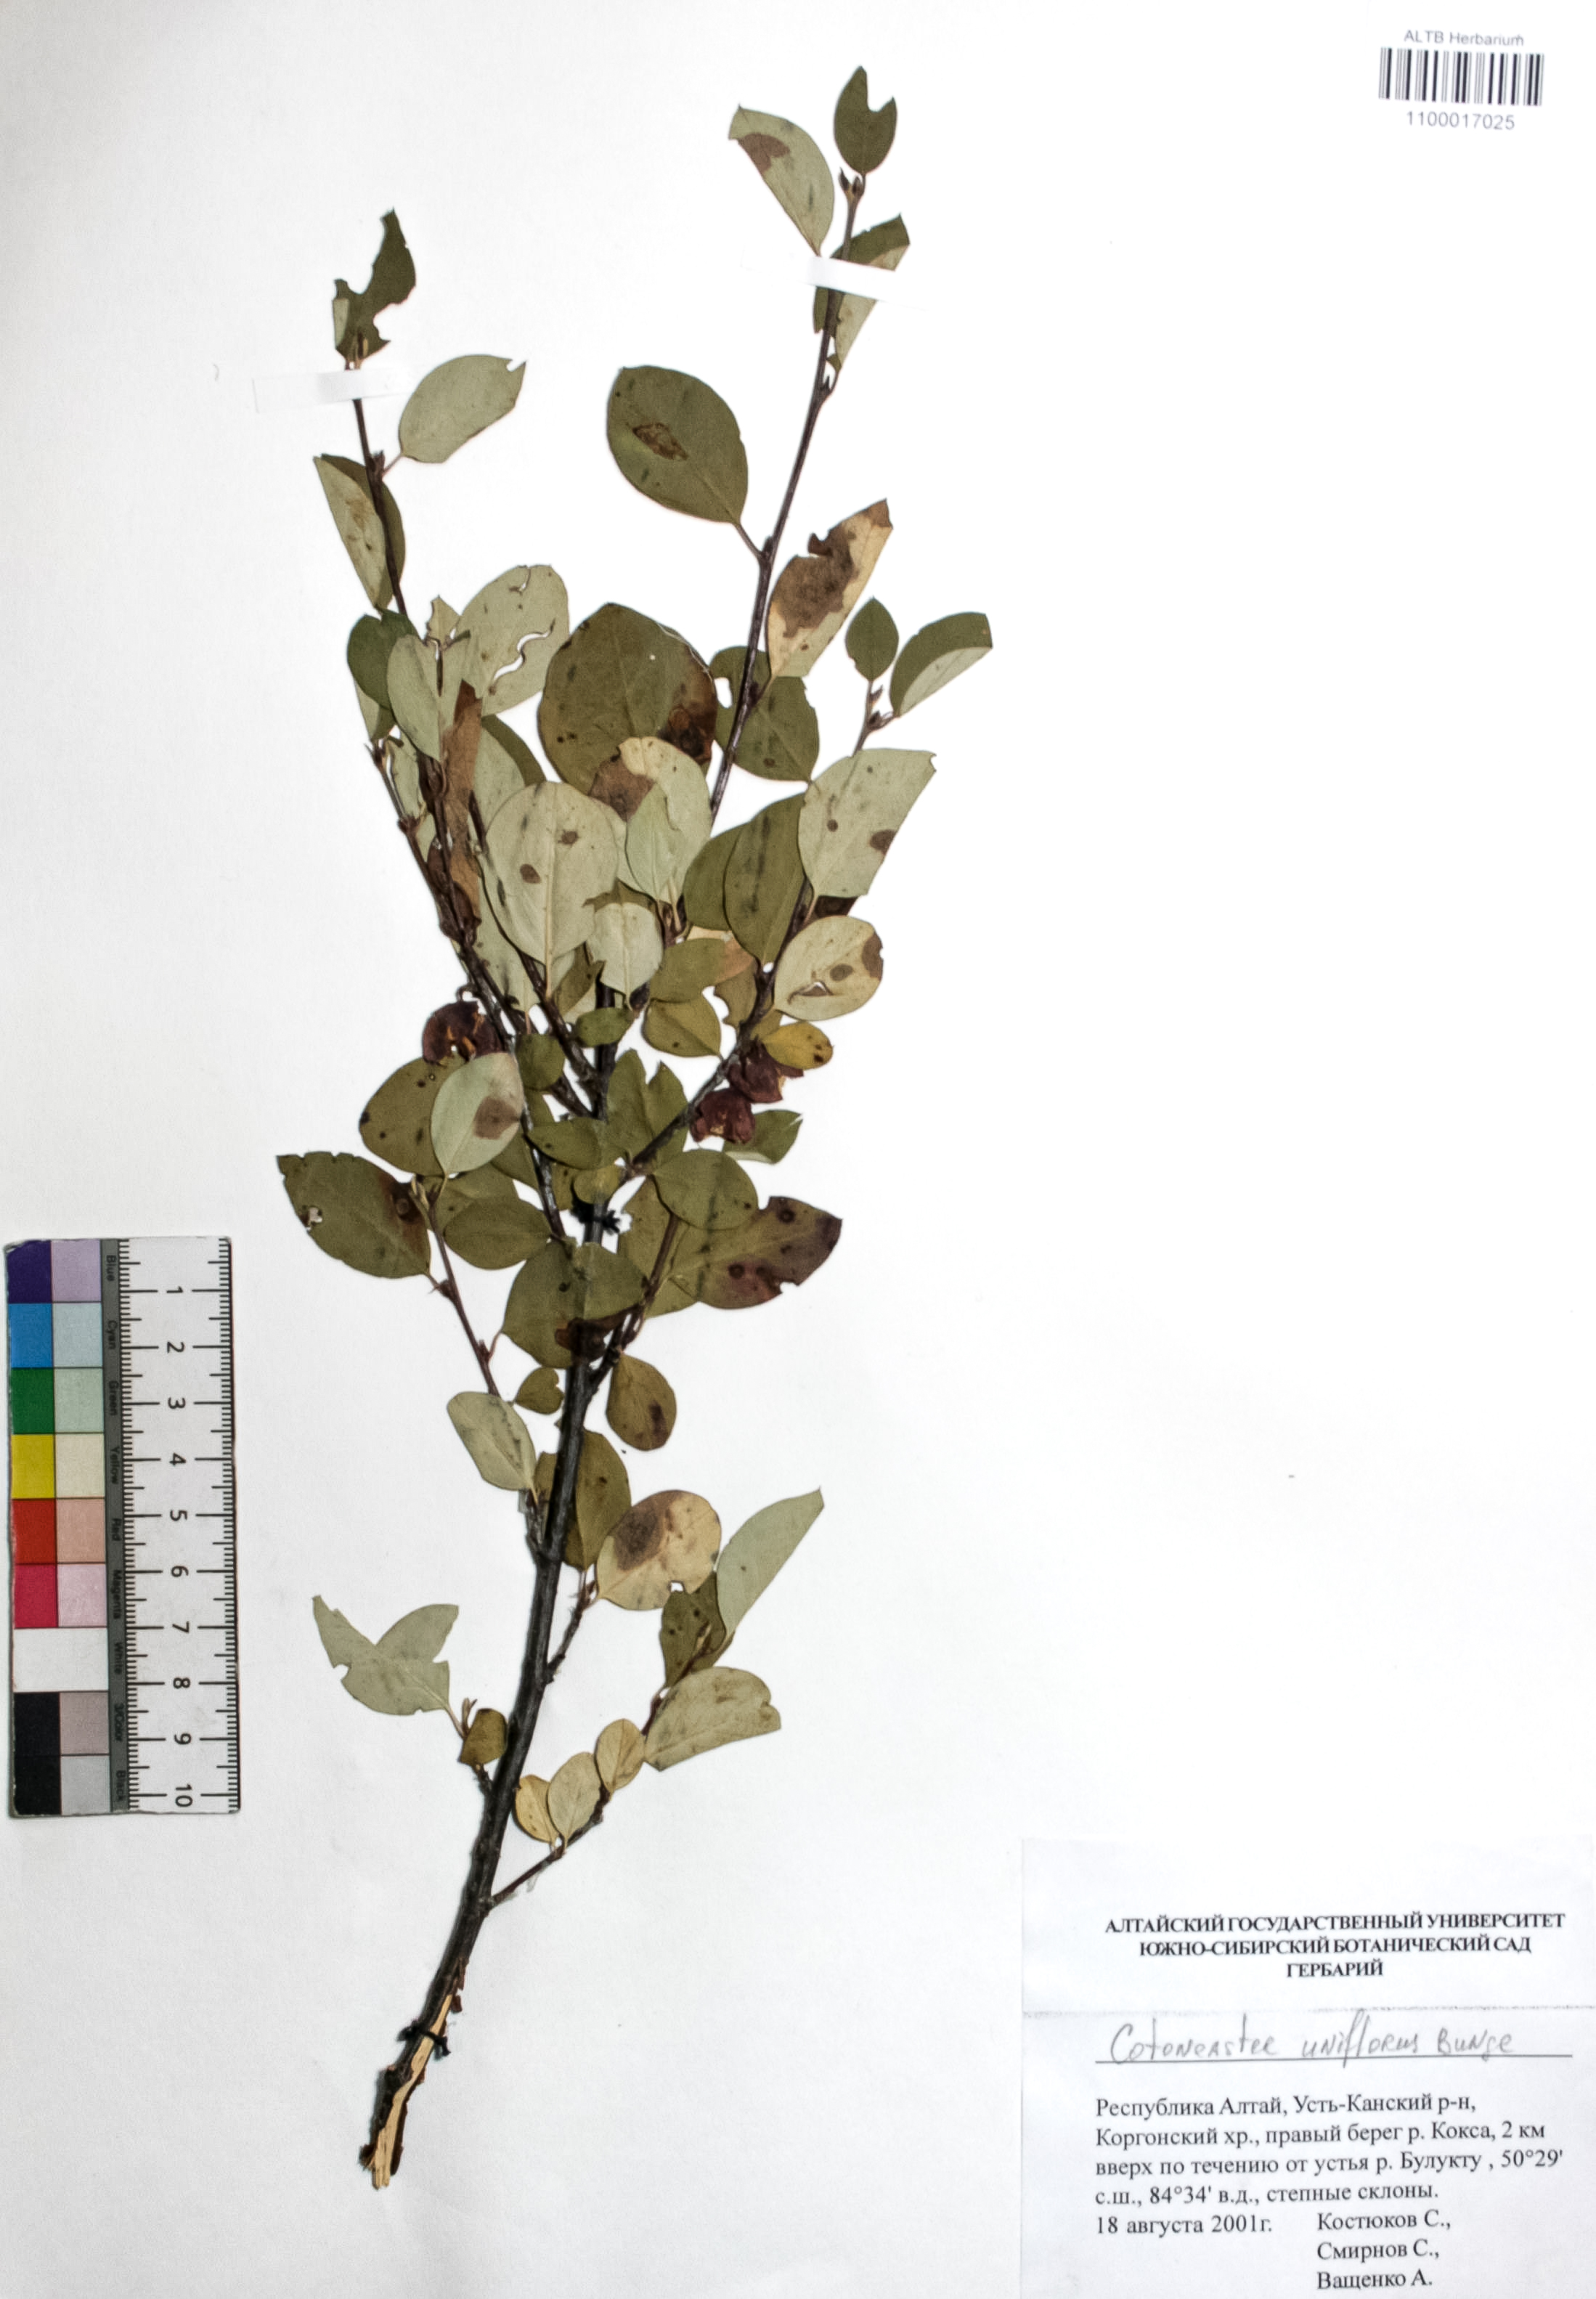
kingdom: Plantae
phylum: Tracheophyta
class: Magnoliopsida
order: Rosales
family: Rosaceae
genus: Cotoneaster
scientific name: Cotoneaster uniflorus
